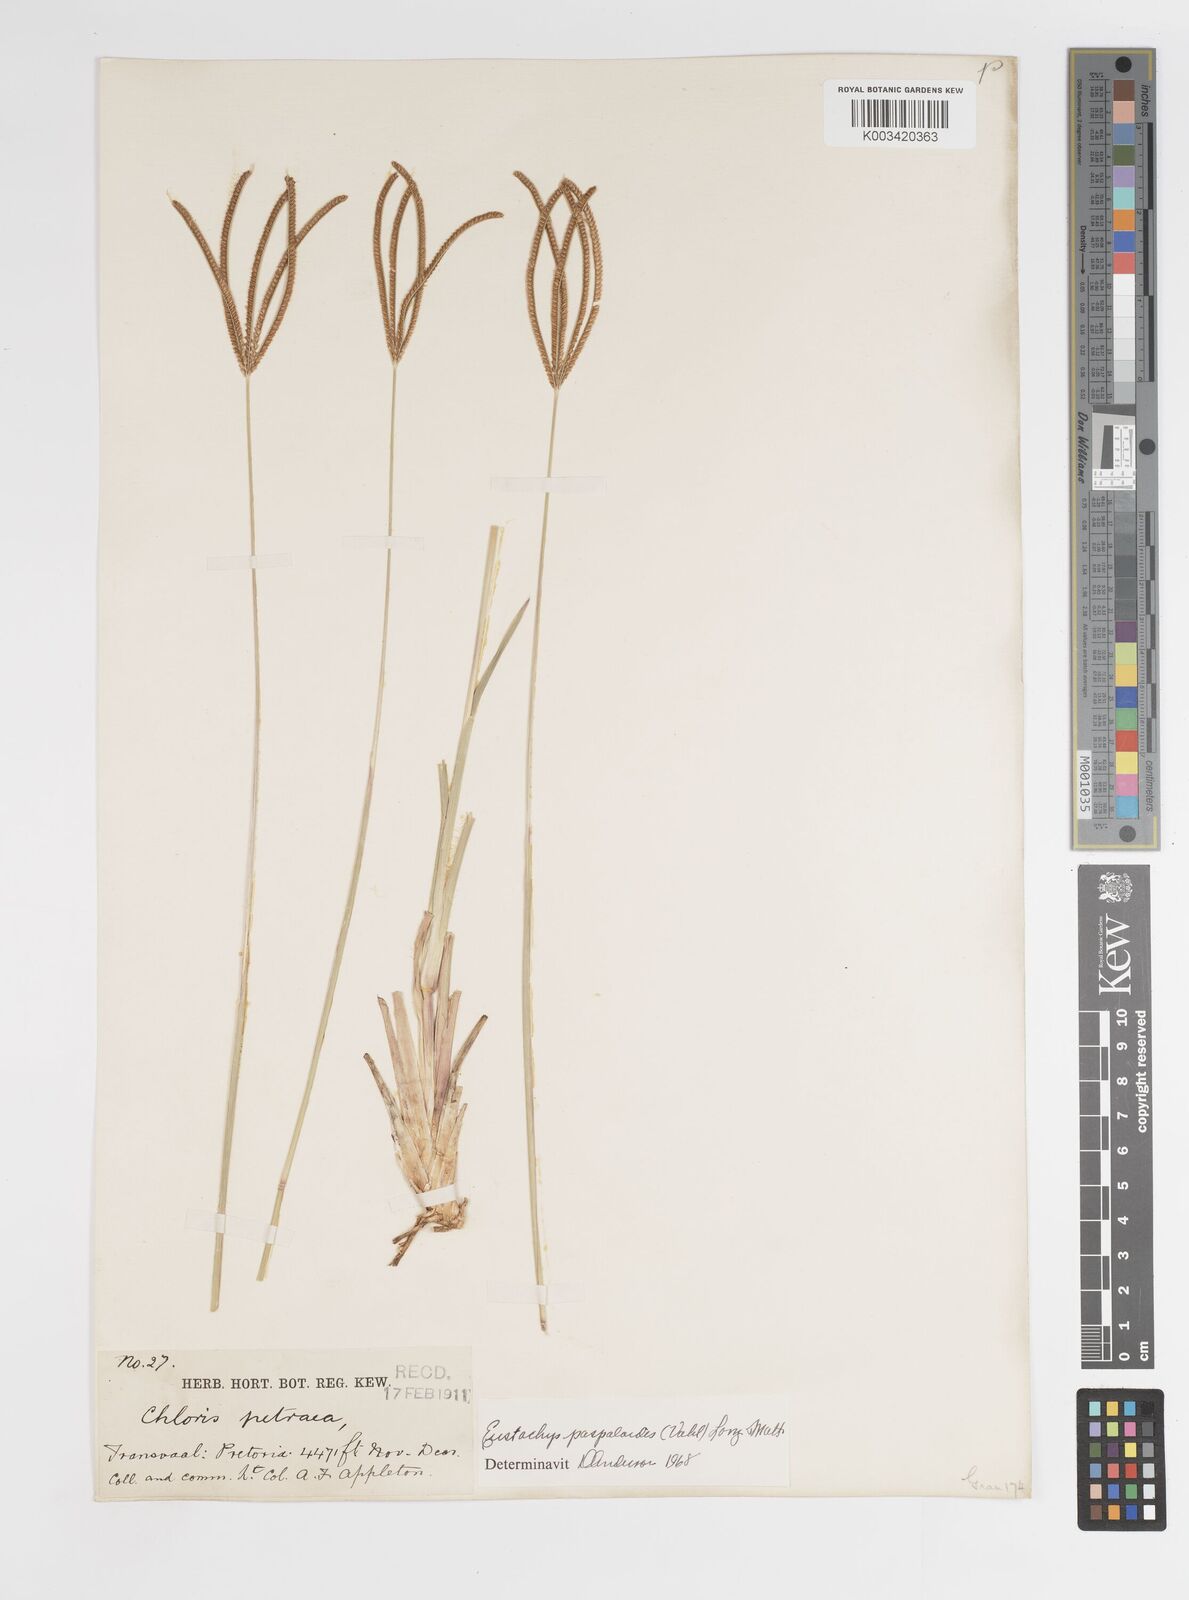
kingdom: Plantae
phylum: Tracheophyta
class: Liliopsida
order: Poales
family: Poaceae
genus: Eustachys
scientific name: Eustachys paspaloides
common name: Caribbean fingergrass
